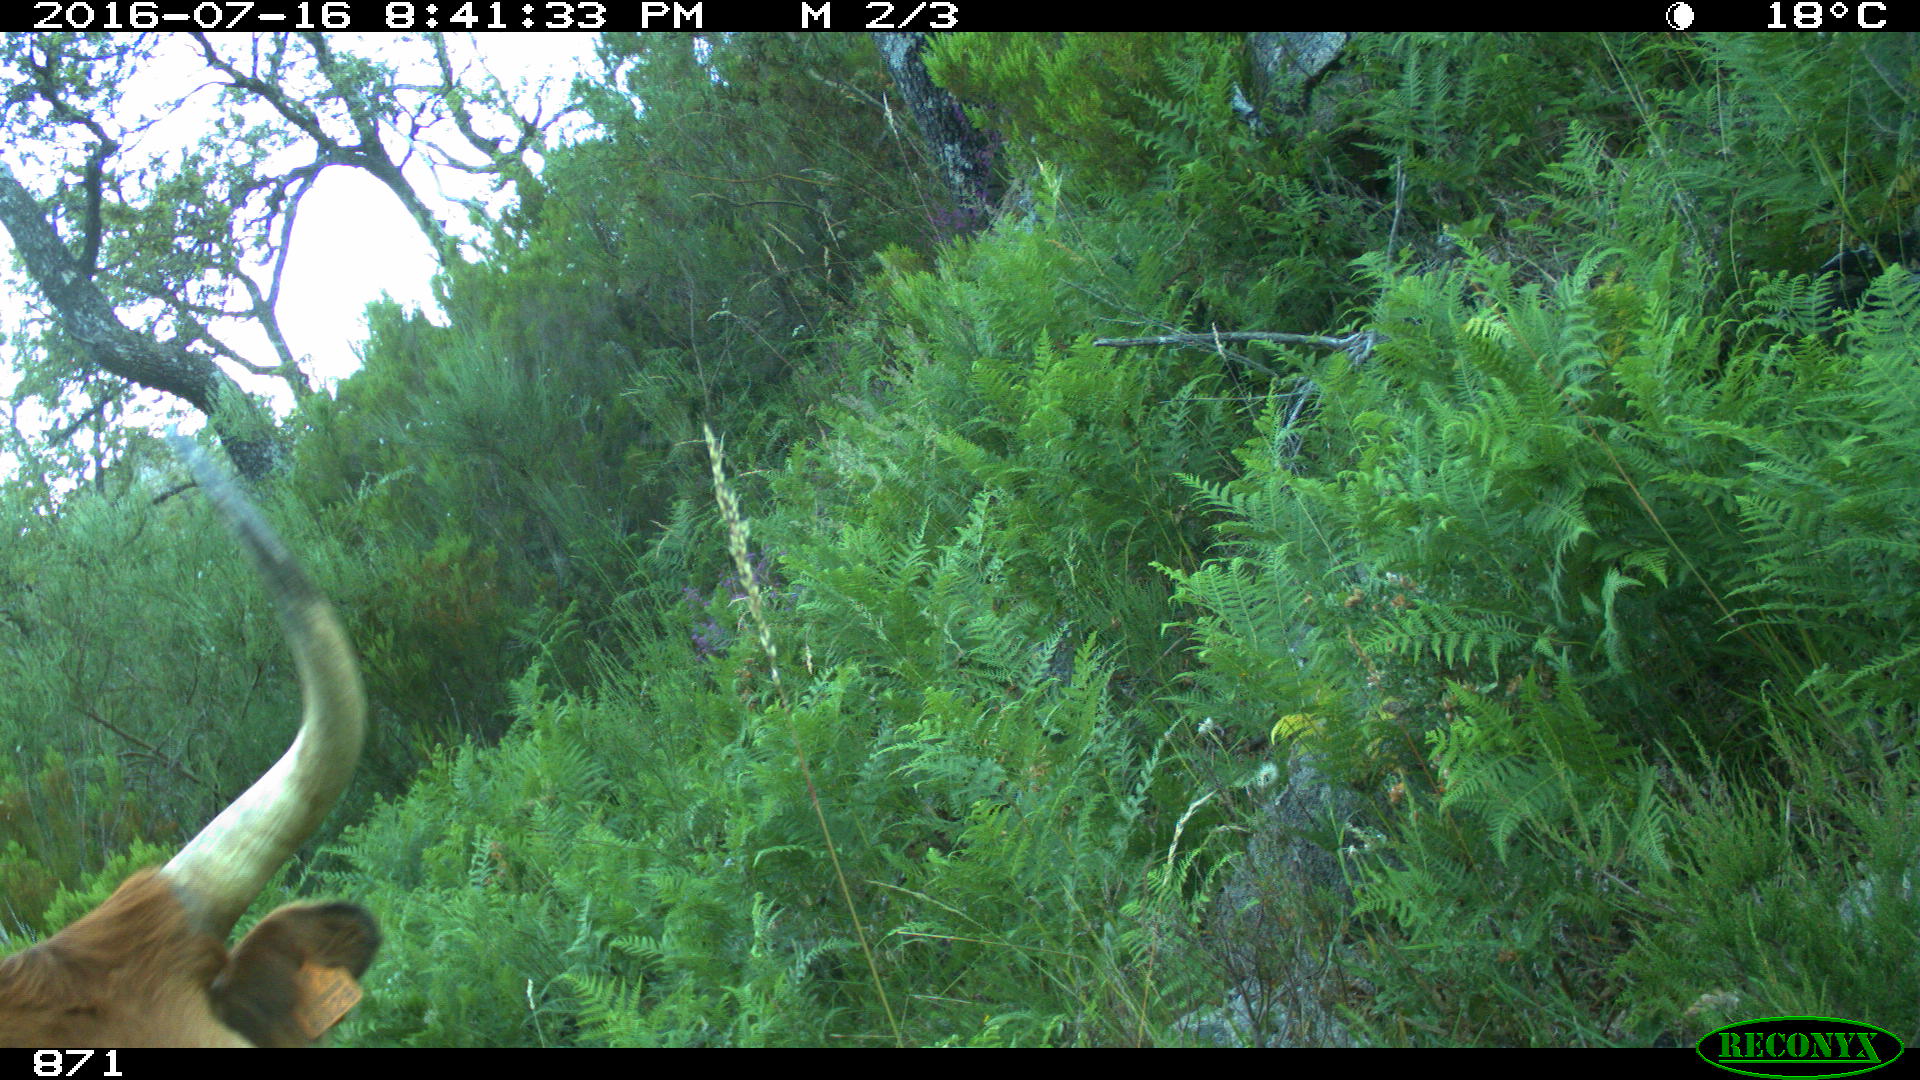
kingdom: Animalia
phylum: Chordata
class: Mammalia
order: Artiodactyla
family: Bovidae
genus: Bos
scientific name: Bos taurus
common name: Domesticated cattle
